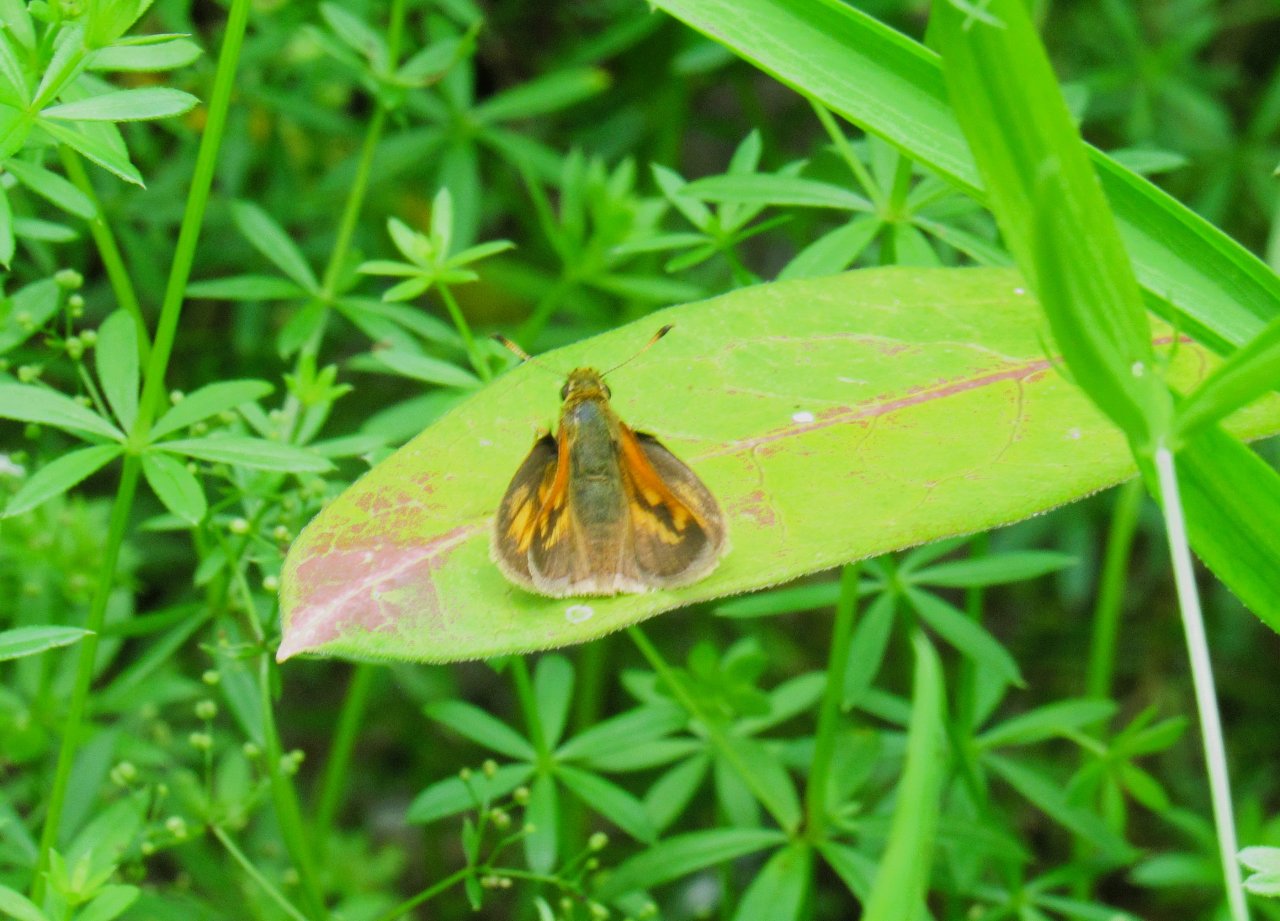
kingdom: Animalia
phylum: Arthropoda
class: Insecta
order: Lepidoptera
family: Hesperiidae
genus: Polites
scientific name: Polites
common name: Long Dash Skipper
